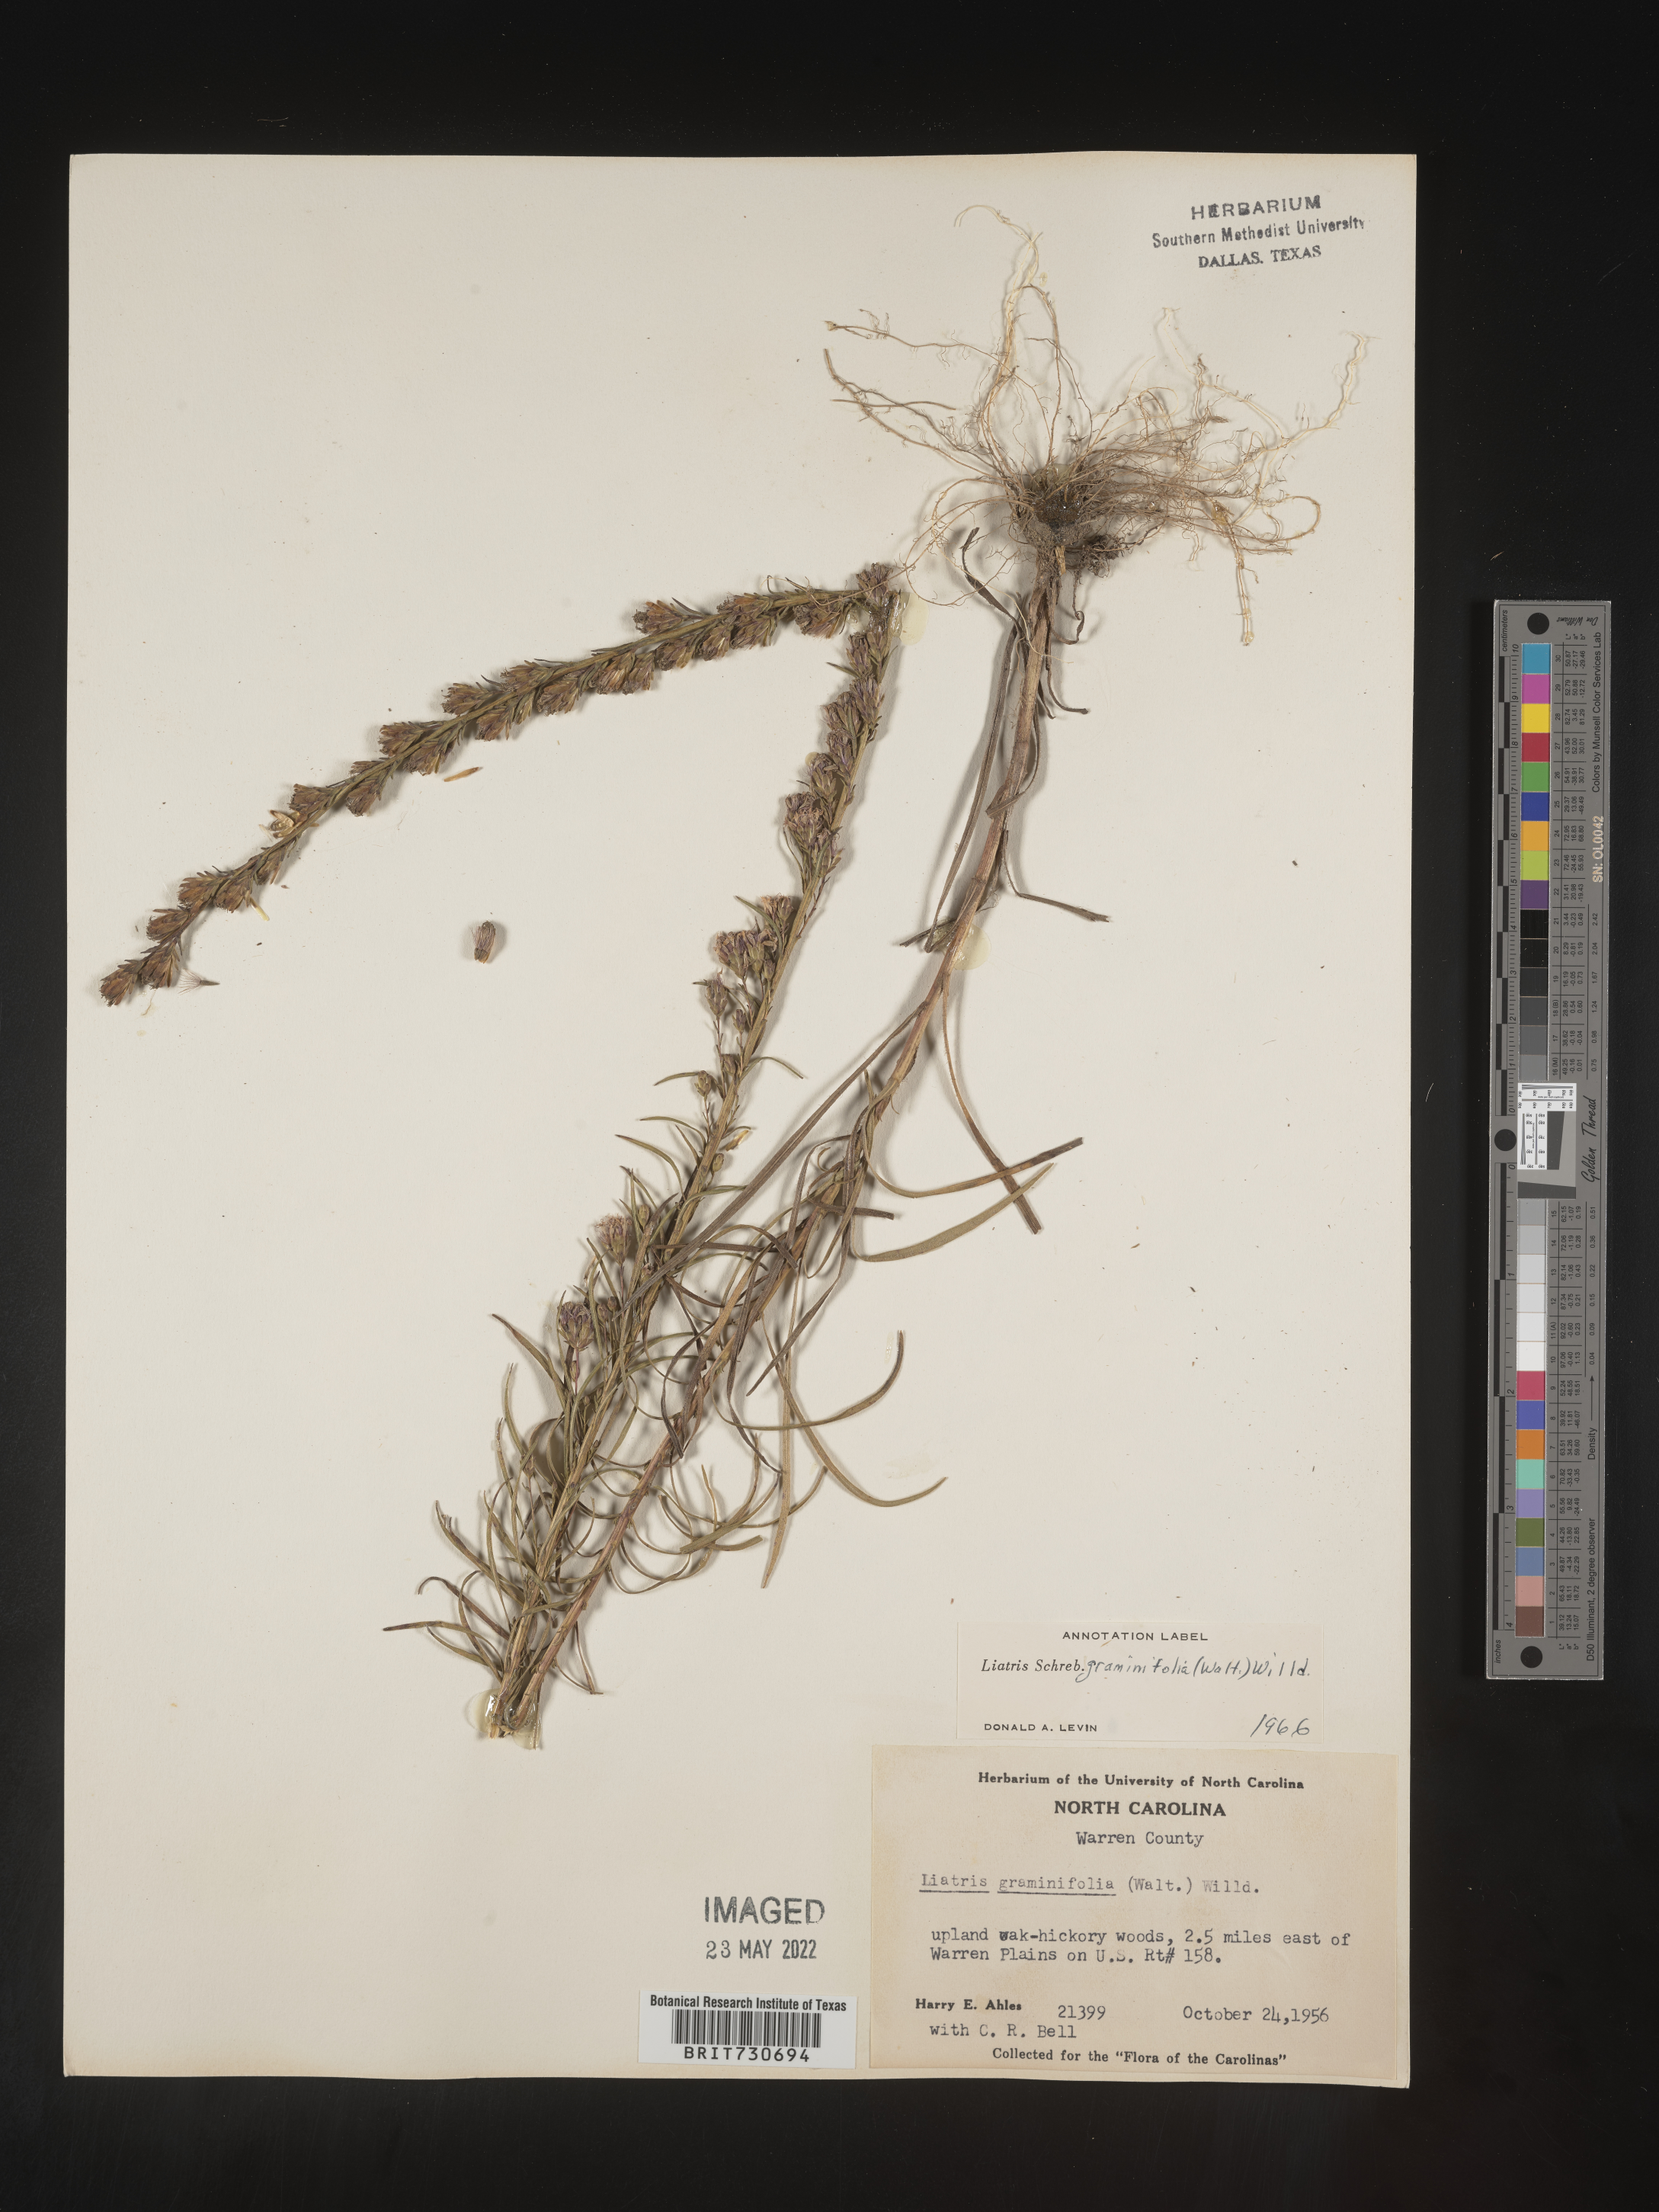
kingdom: Plantae
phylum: Tracheophyta
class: Magnoliopsida
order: Asterales
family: Asteraceae
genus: Liatris
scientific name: Liatris pilosa
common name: Grass-leaf gayfeather
